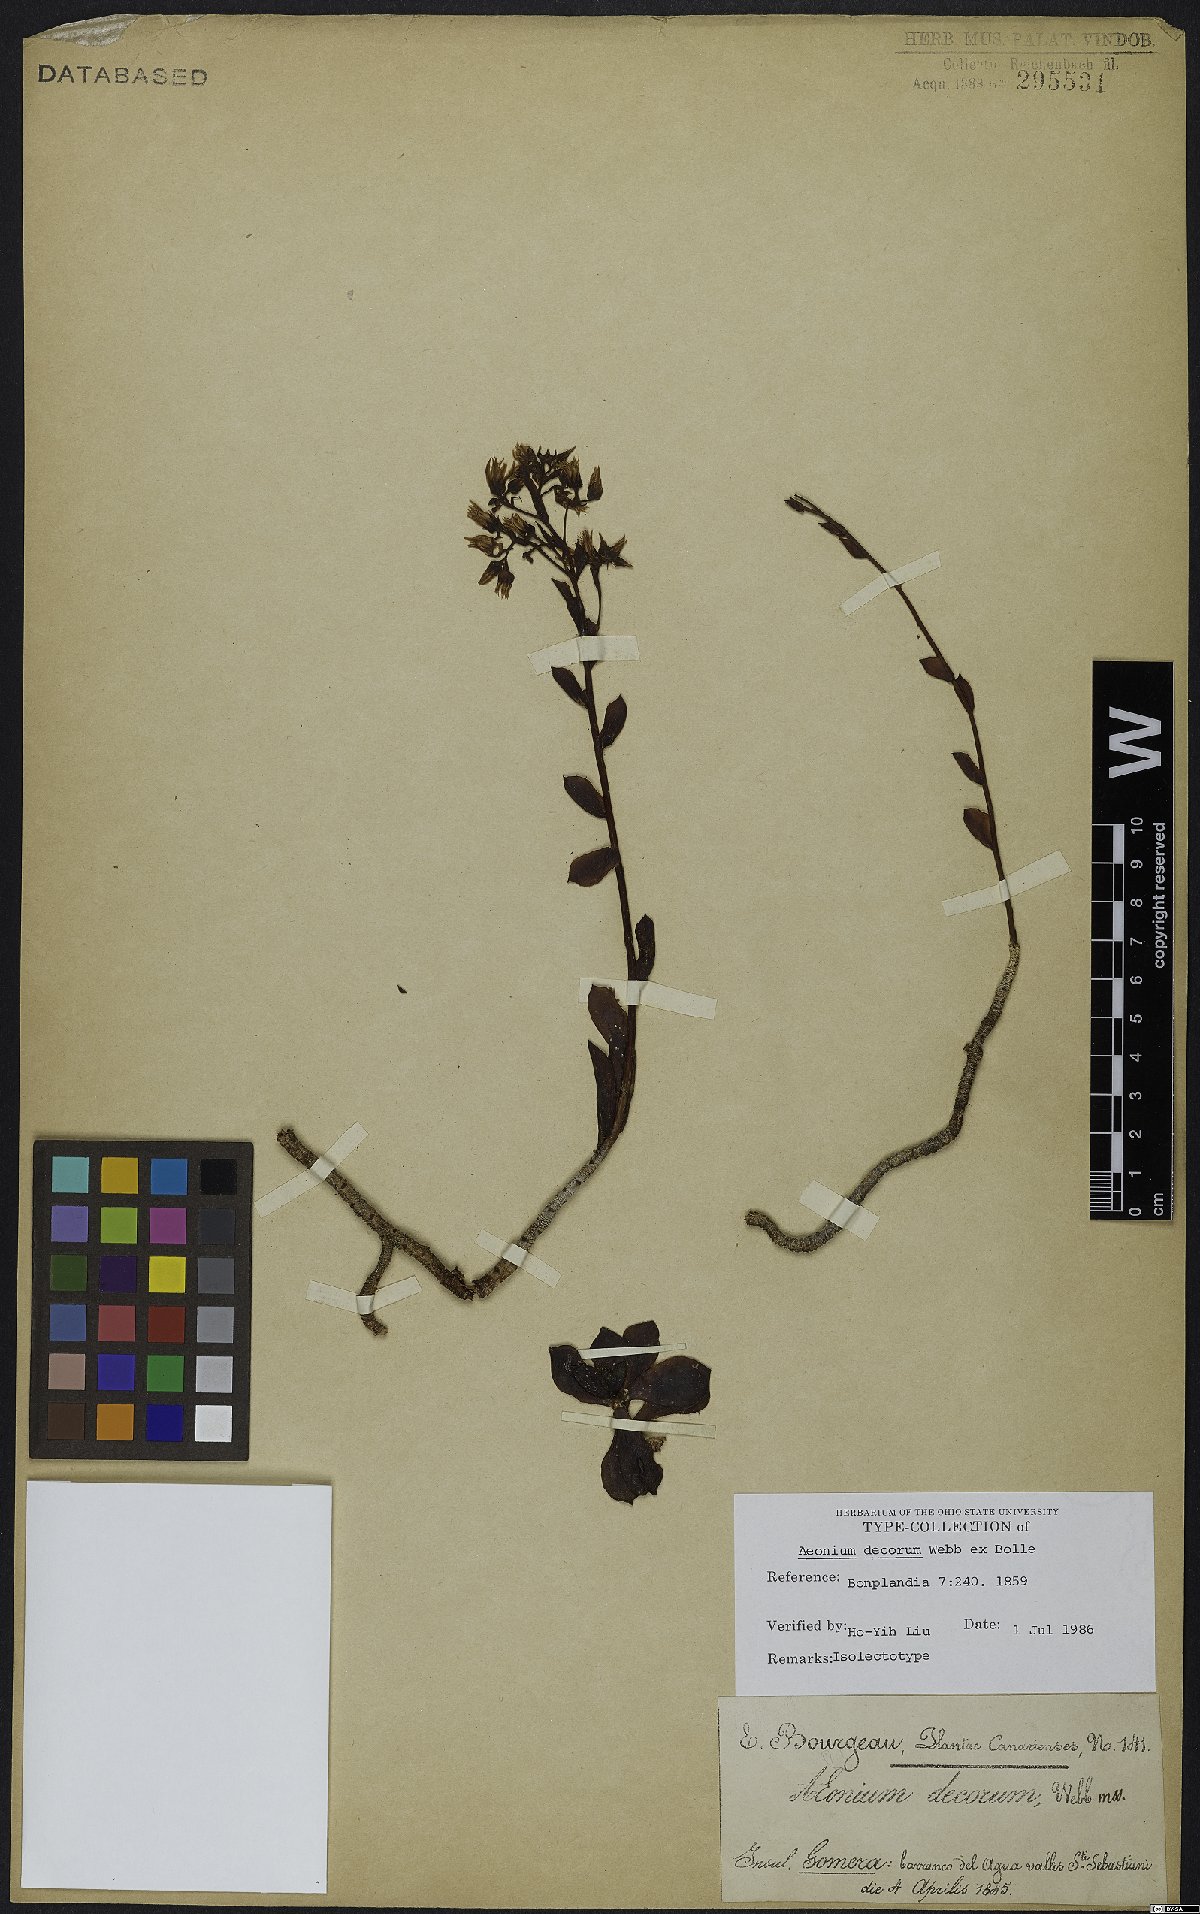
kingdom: Plantae
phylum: Tracheophyta
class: Magnoliopsida
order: Saxifragales
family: Crassulaceae
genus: Aeonium
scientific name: Aeonium decorum
